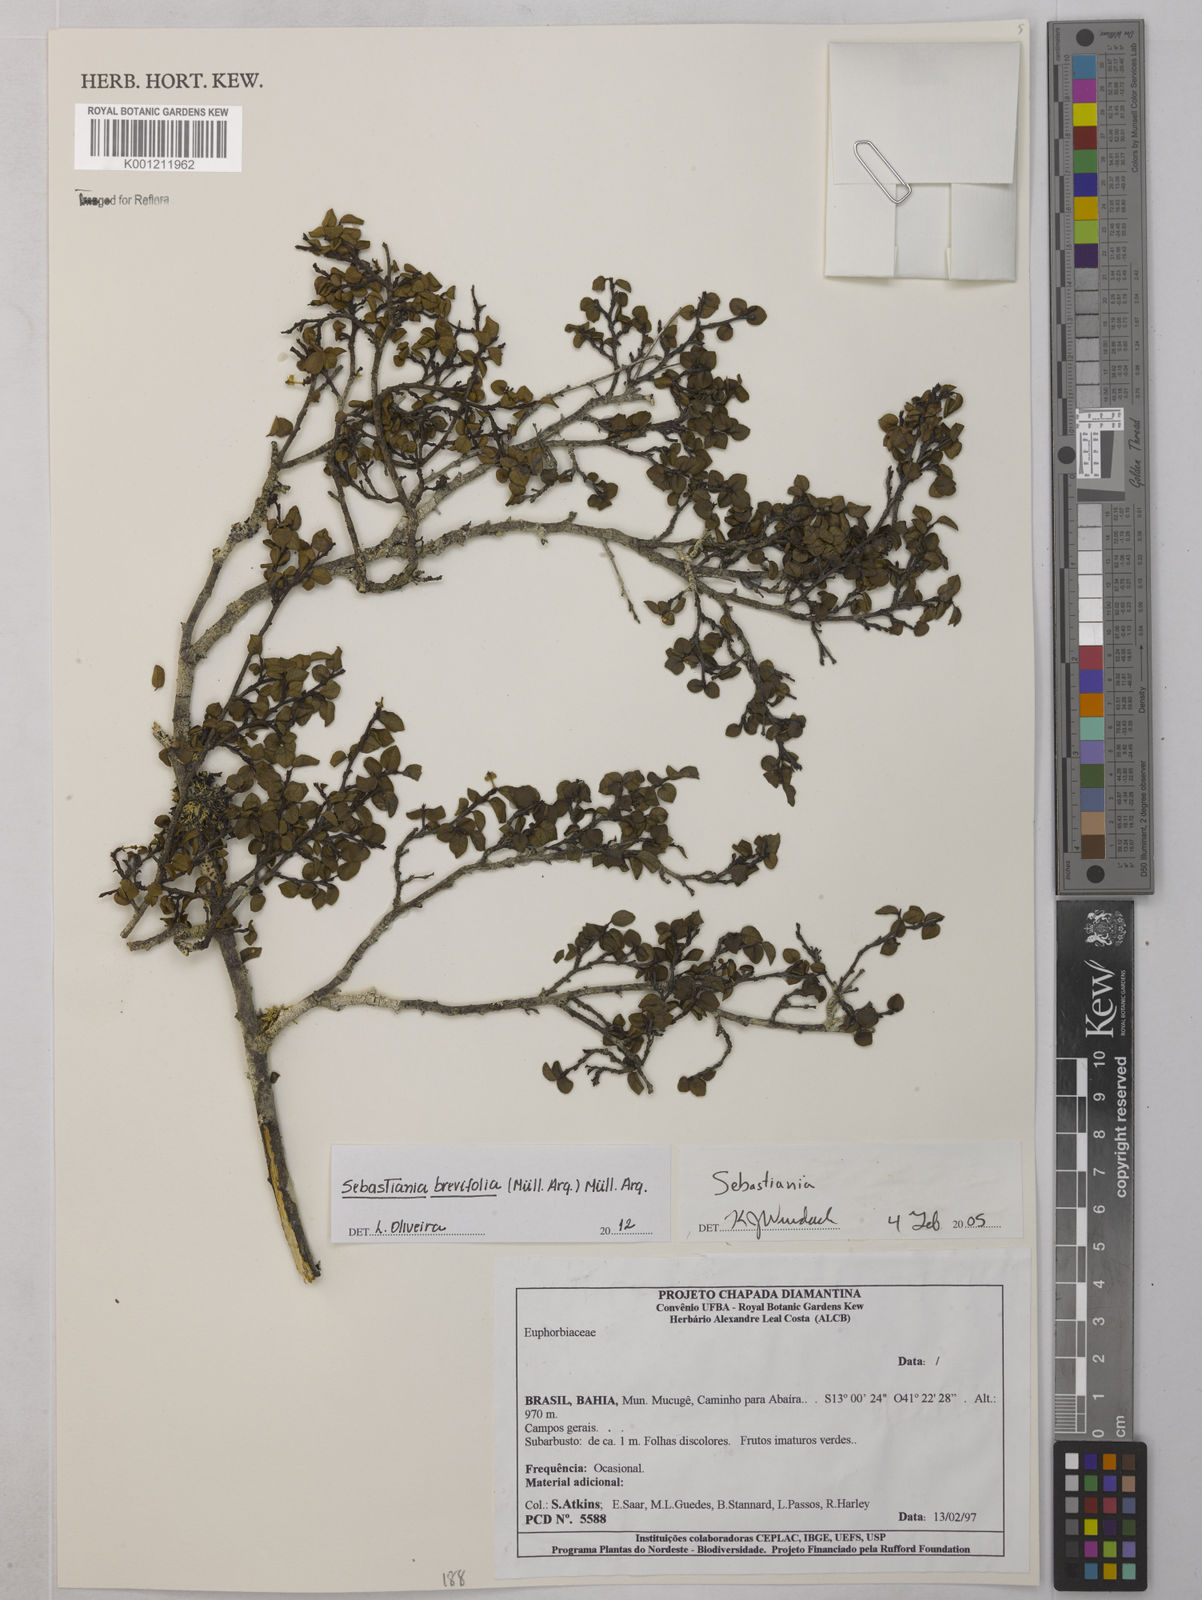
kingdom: Plantae
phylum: Tracheophyta
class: Magnoliopsida
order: Malpighiales
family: Euphorbiaceae
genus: Sebastiania
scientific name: Sebastiania
